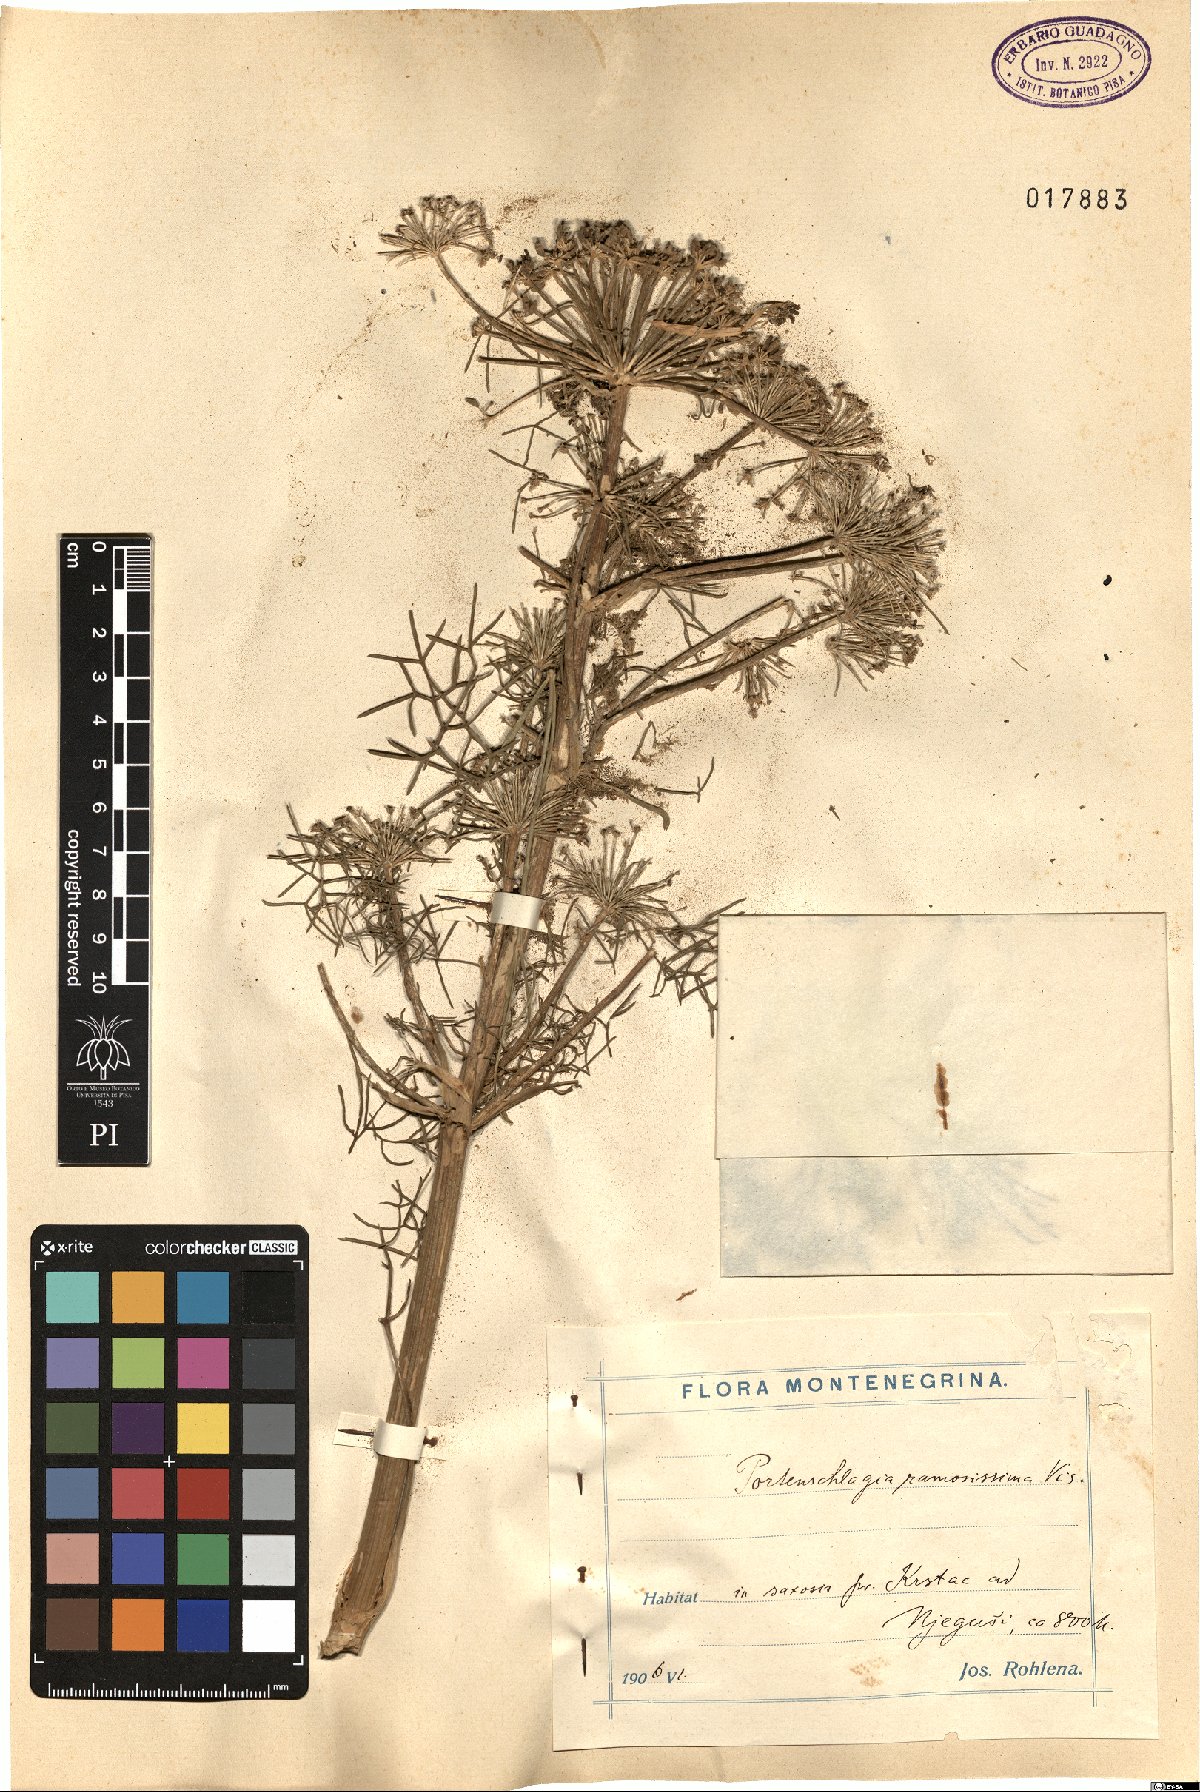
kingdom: Plantae
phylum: Tracheophyta
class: Magnoliopsida
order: Apiales
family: Apiaceae
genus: Athamanta
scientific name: Athamanta ramosissima
